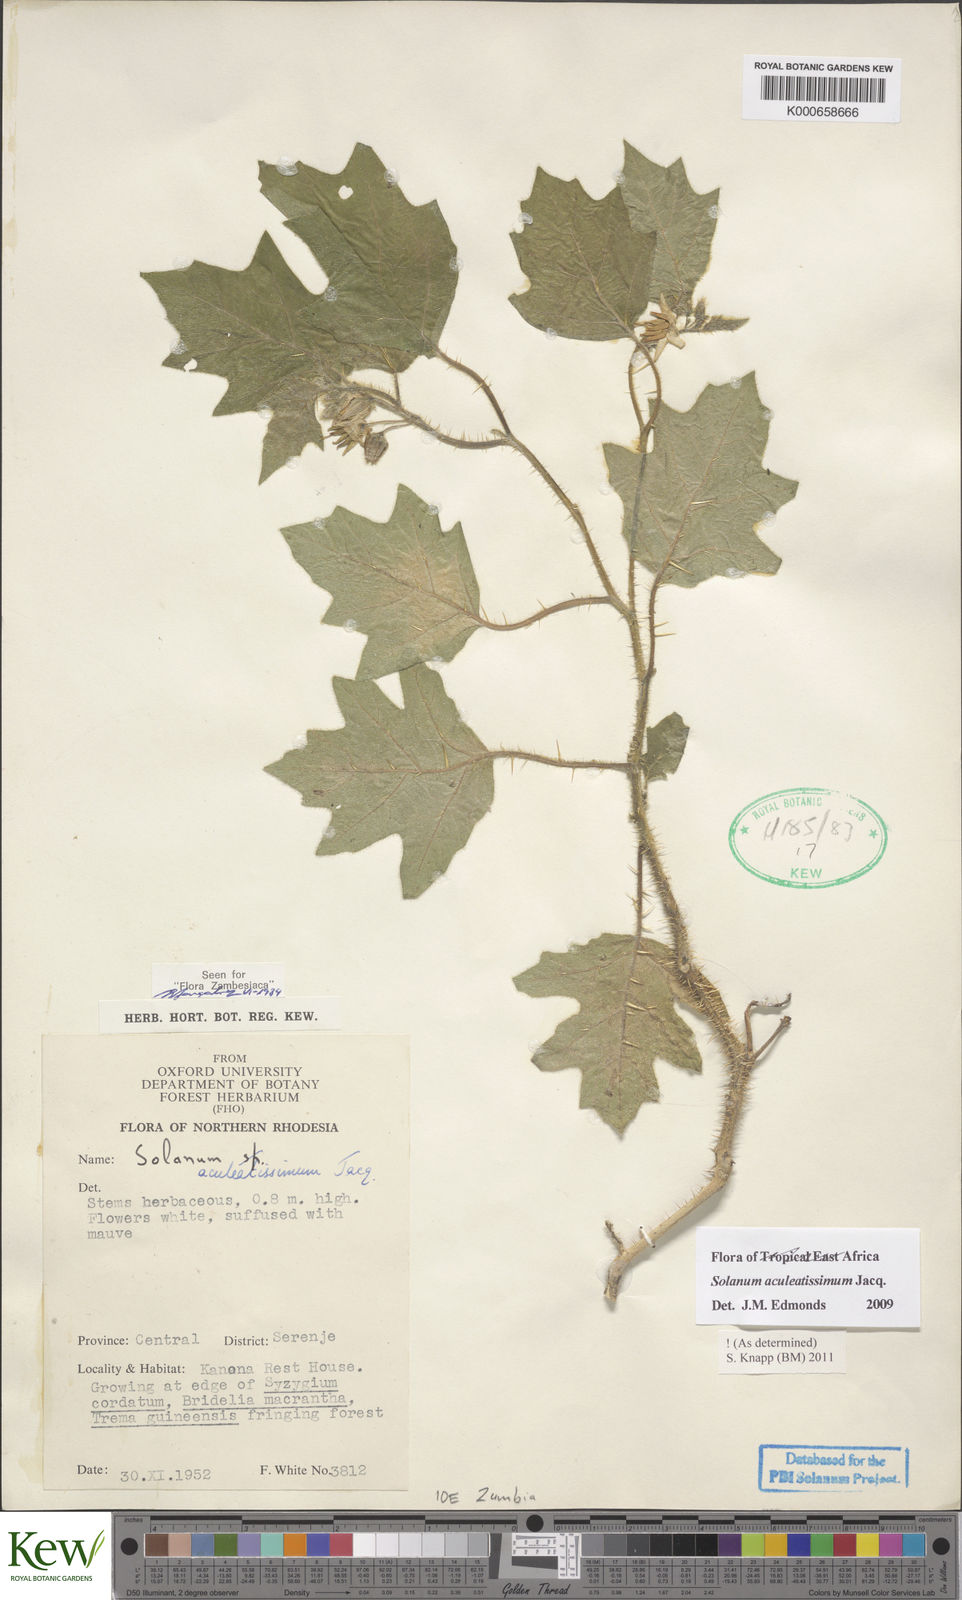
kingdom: Plantae
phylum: Tracheophyta
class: Magnoliopsida
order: Solanales
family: Solanaceae
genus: Solanum
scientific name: Solanum aculeatissimum
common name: Dutch eggplant
